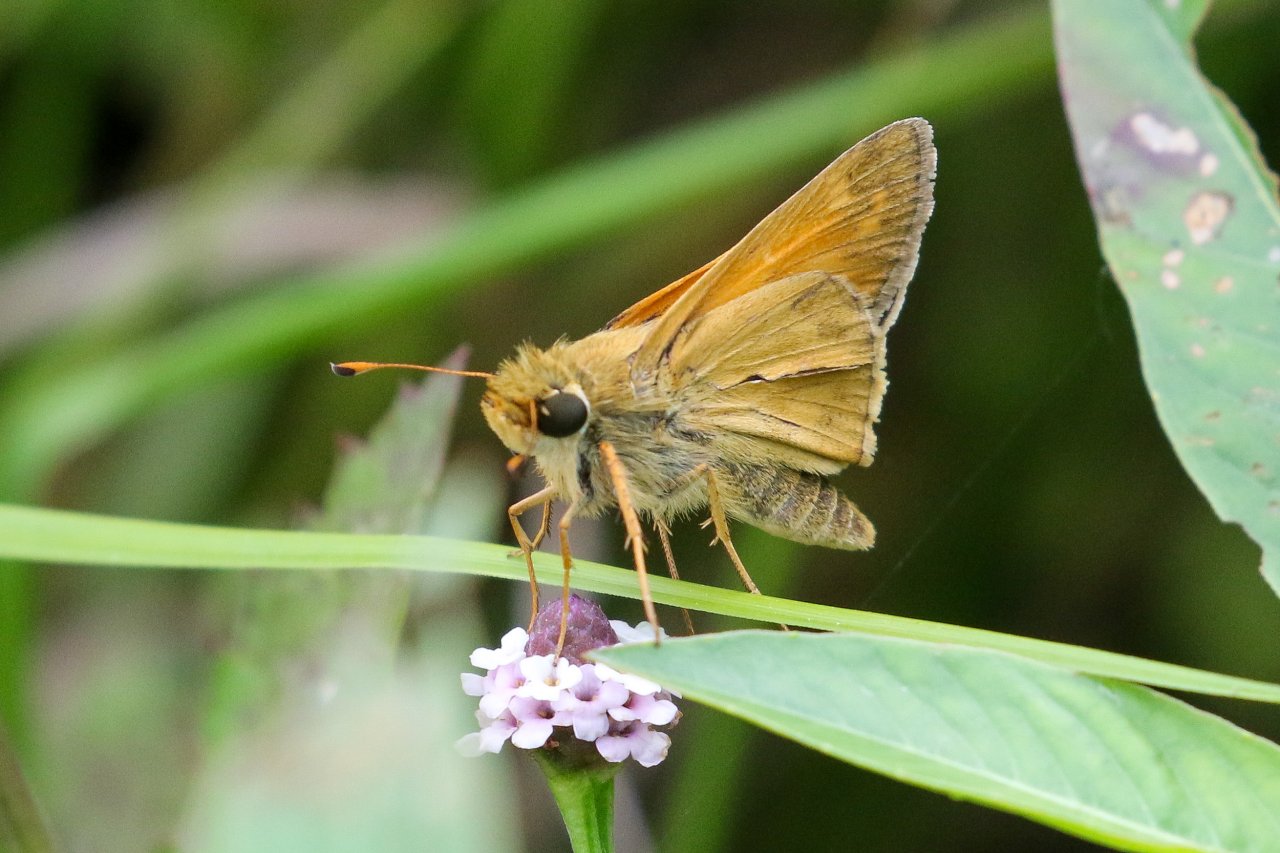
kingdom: Animalia
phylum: Arthropoda
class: Insecta
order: Lepidoptera
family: Hesperiidae
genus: Atalopedes
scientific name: Atalopedes campestris
